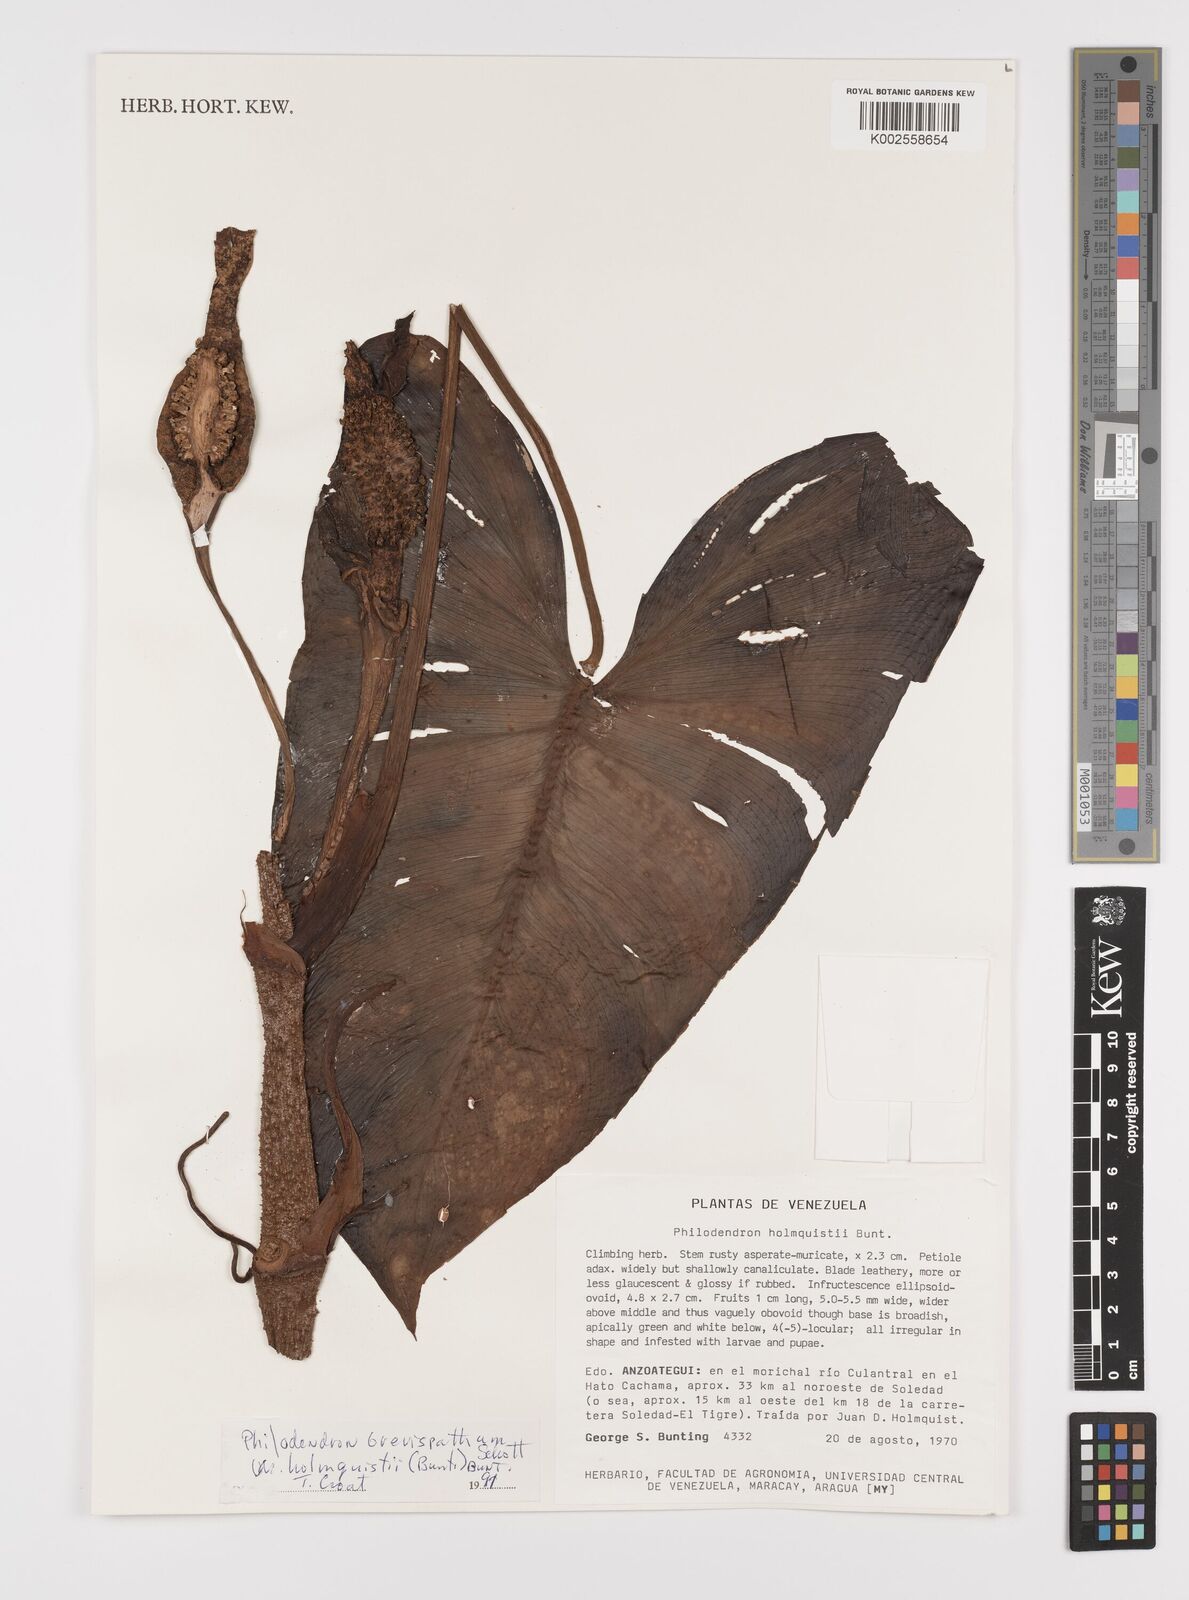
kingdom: Plantae
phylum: Tracheophyta
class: Liliopsida
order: Alismatales
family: Araceae
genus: Philodendron
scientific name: Philodendron brevispathum
